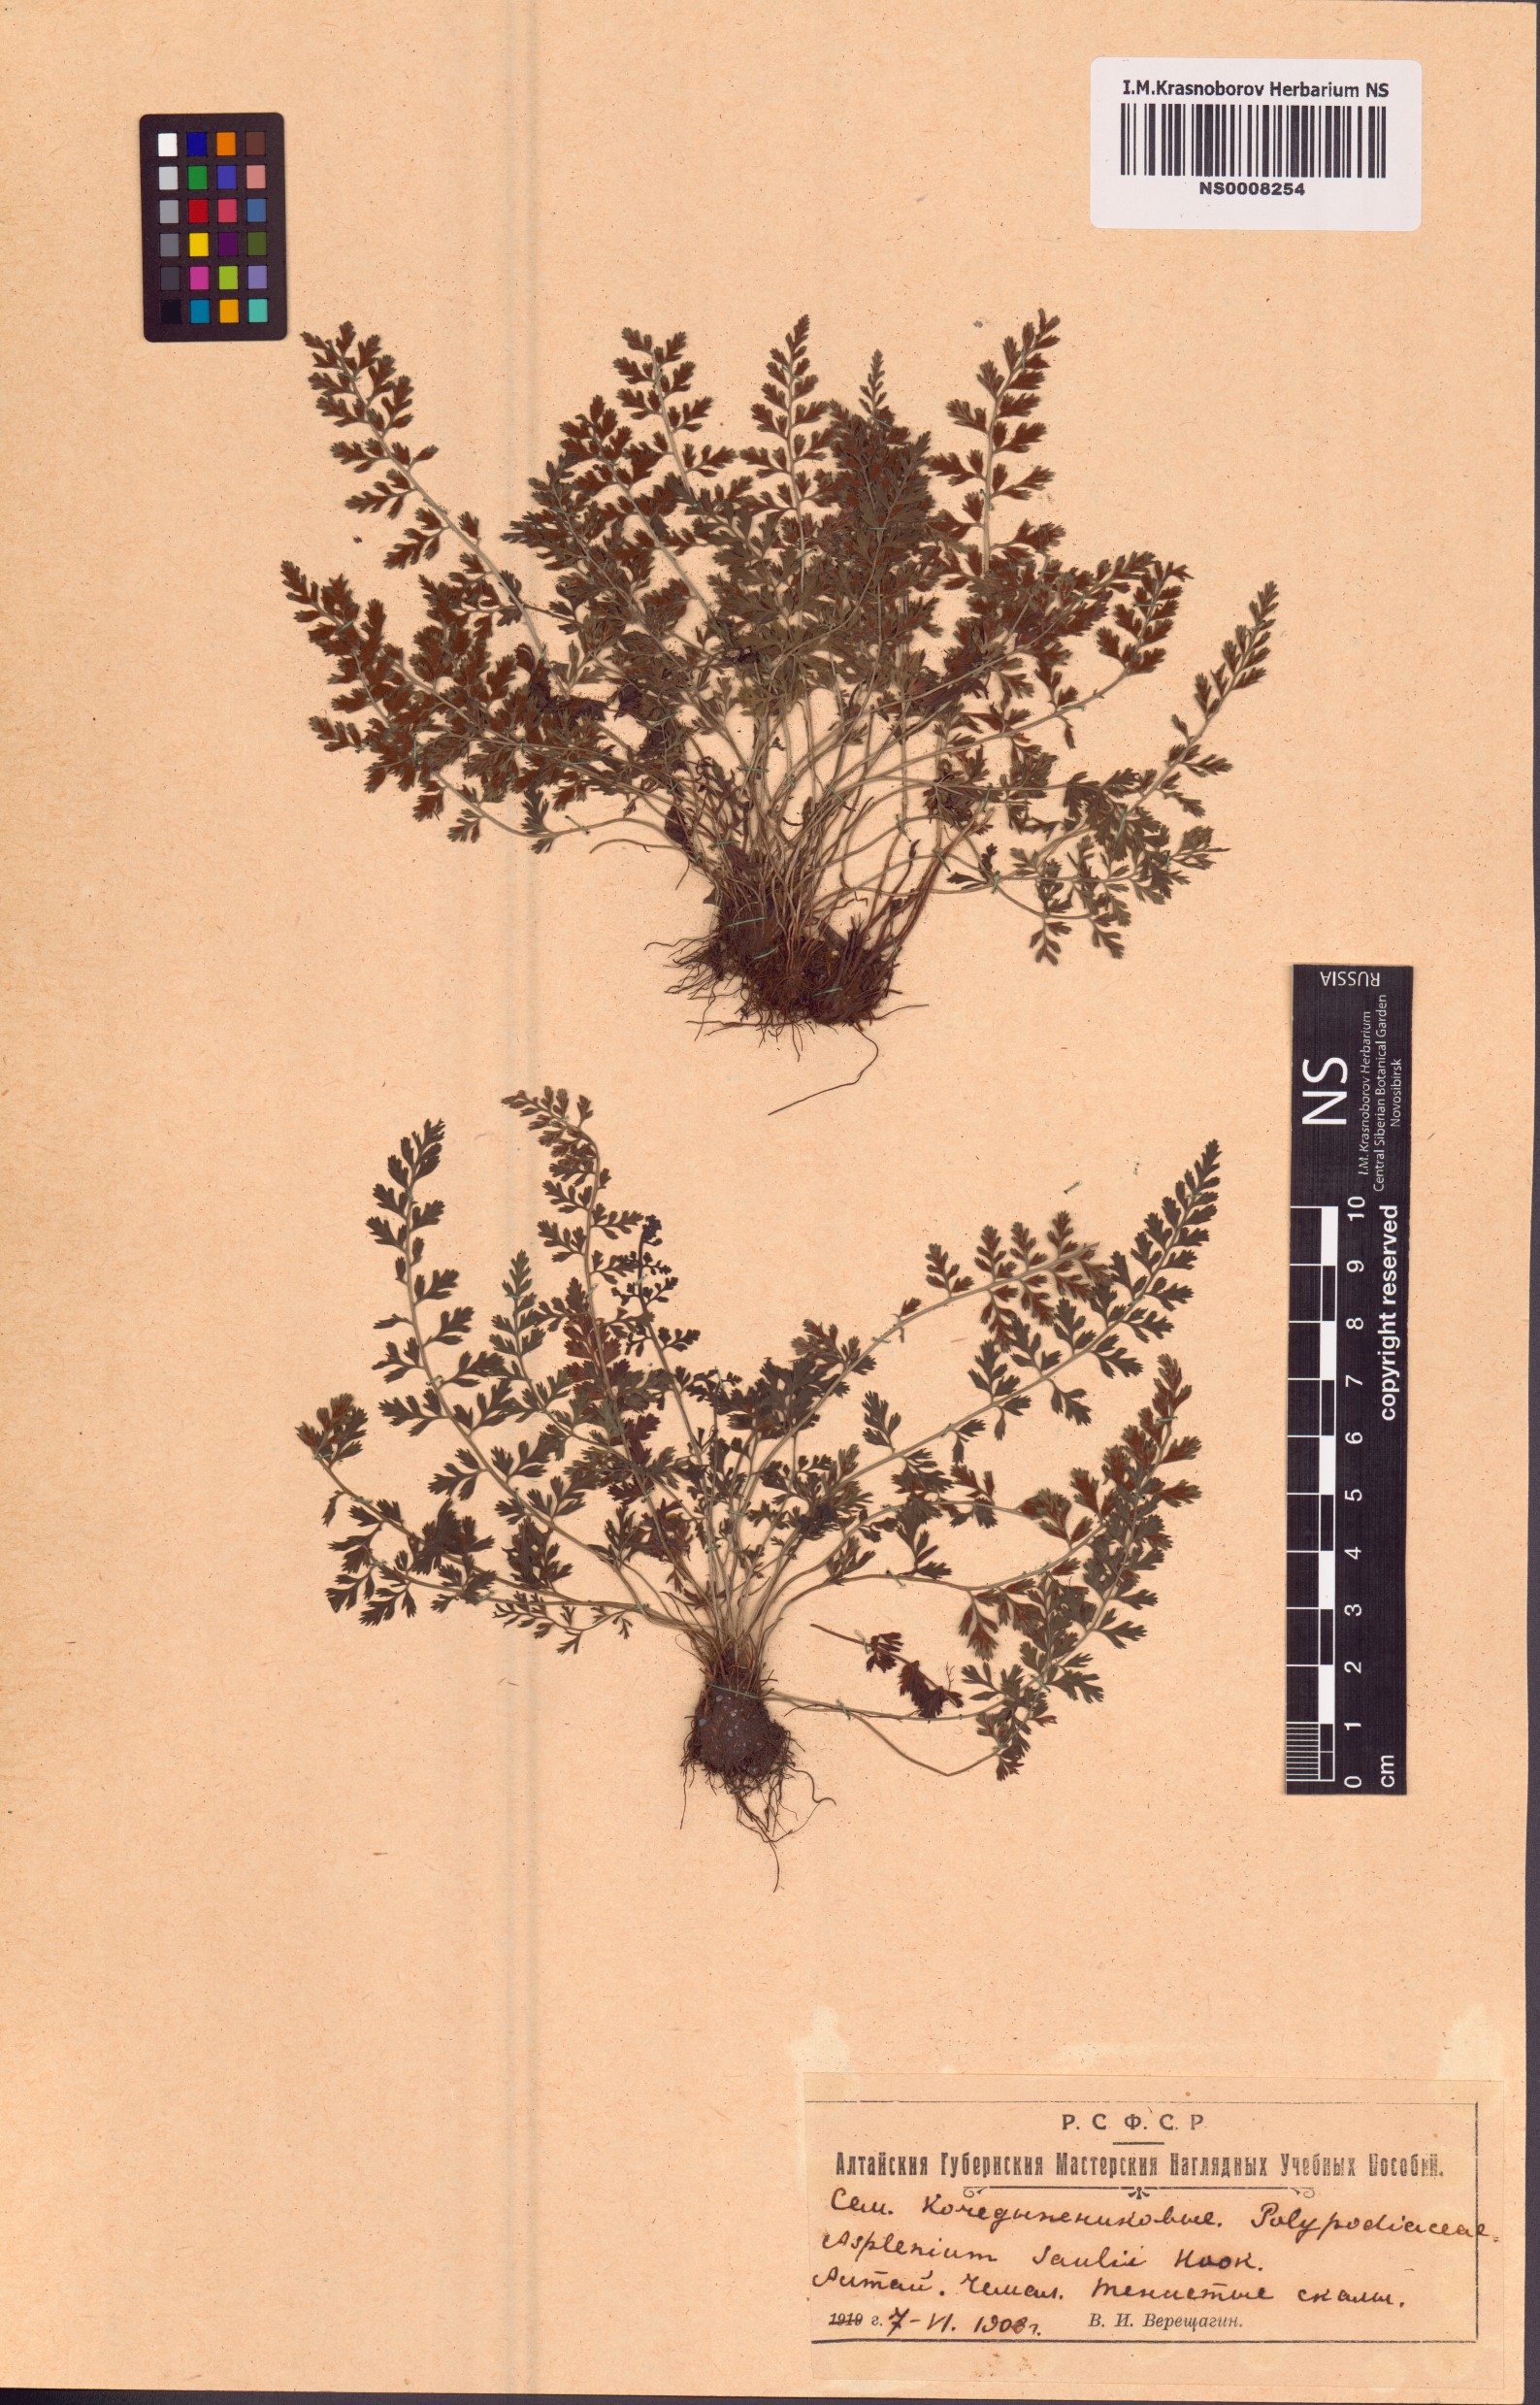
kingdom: Plantae
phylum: Tracheophyta
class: Polypodiopsida
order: Polypodiales
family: Aspleniaceae
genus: Asplenium
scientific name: Asplenium sarelii
